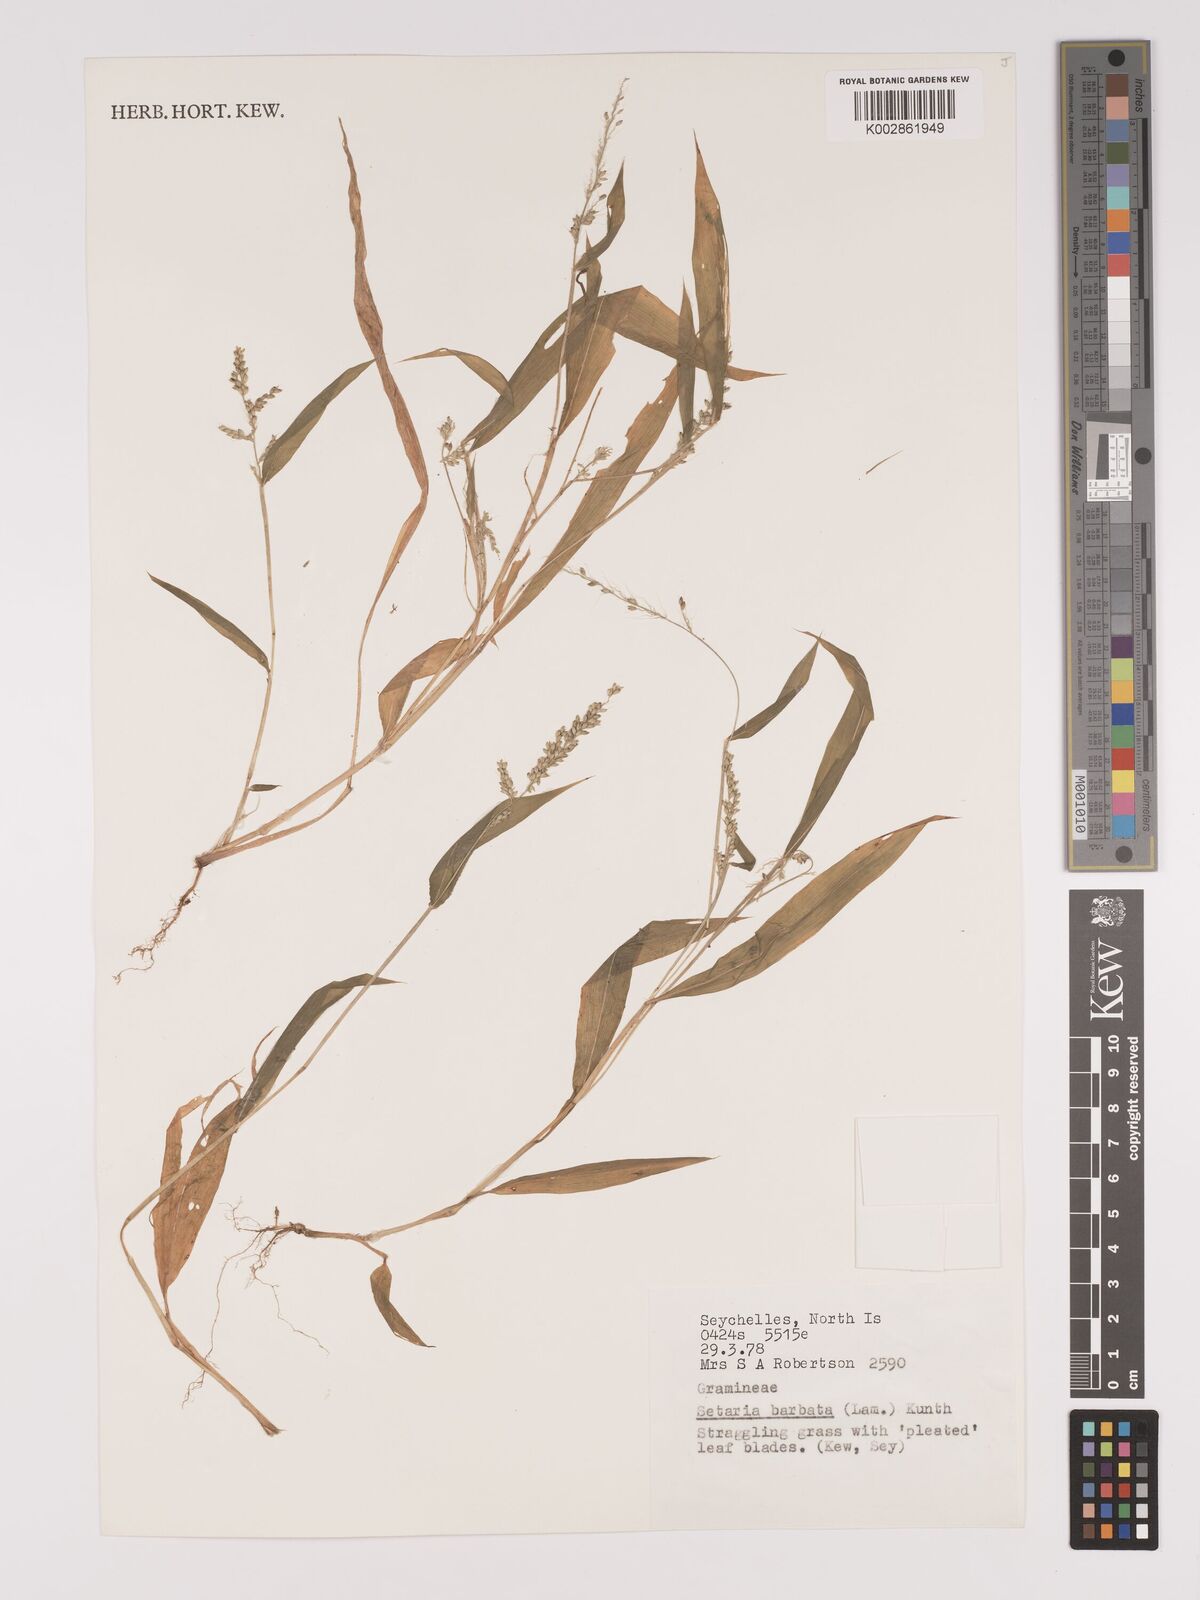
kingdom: Plantae
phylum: Tracheophyta
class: Liliopsida
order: Poales
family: Poaceae
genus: Setaria
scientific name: Setaria barbata
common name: East indian bristlegrass
